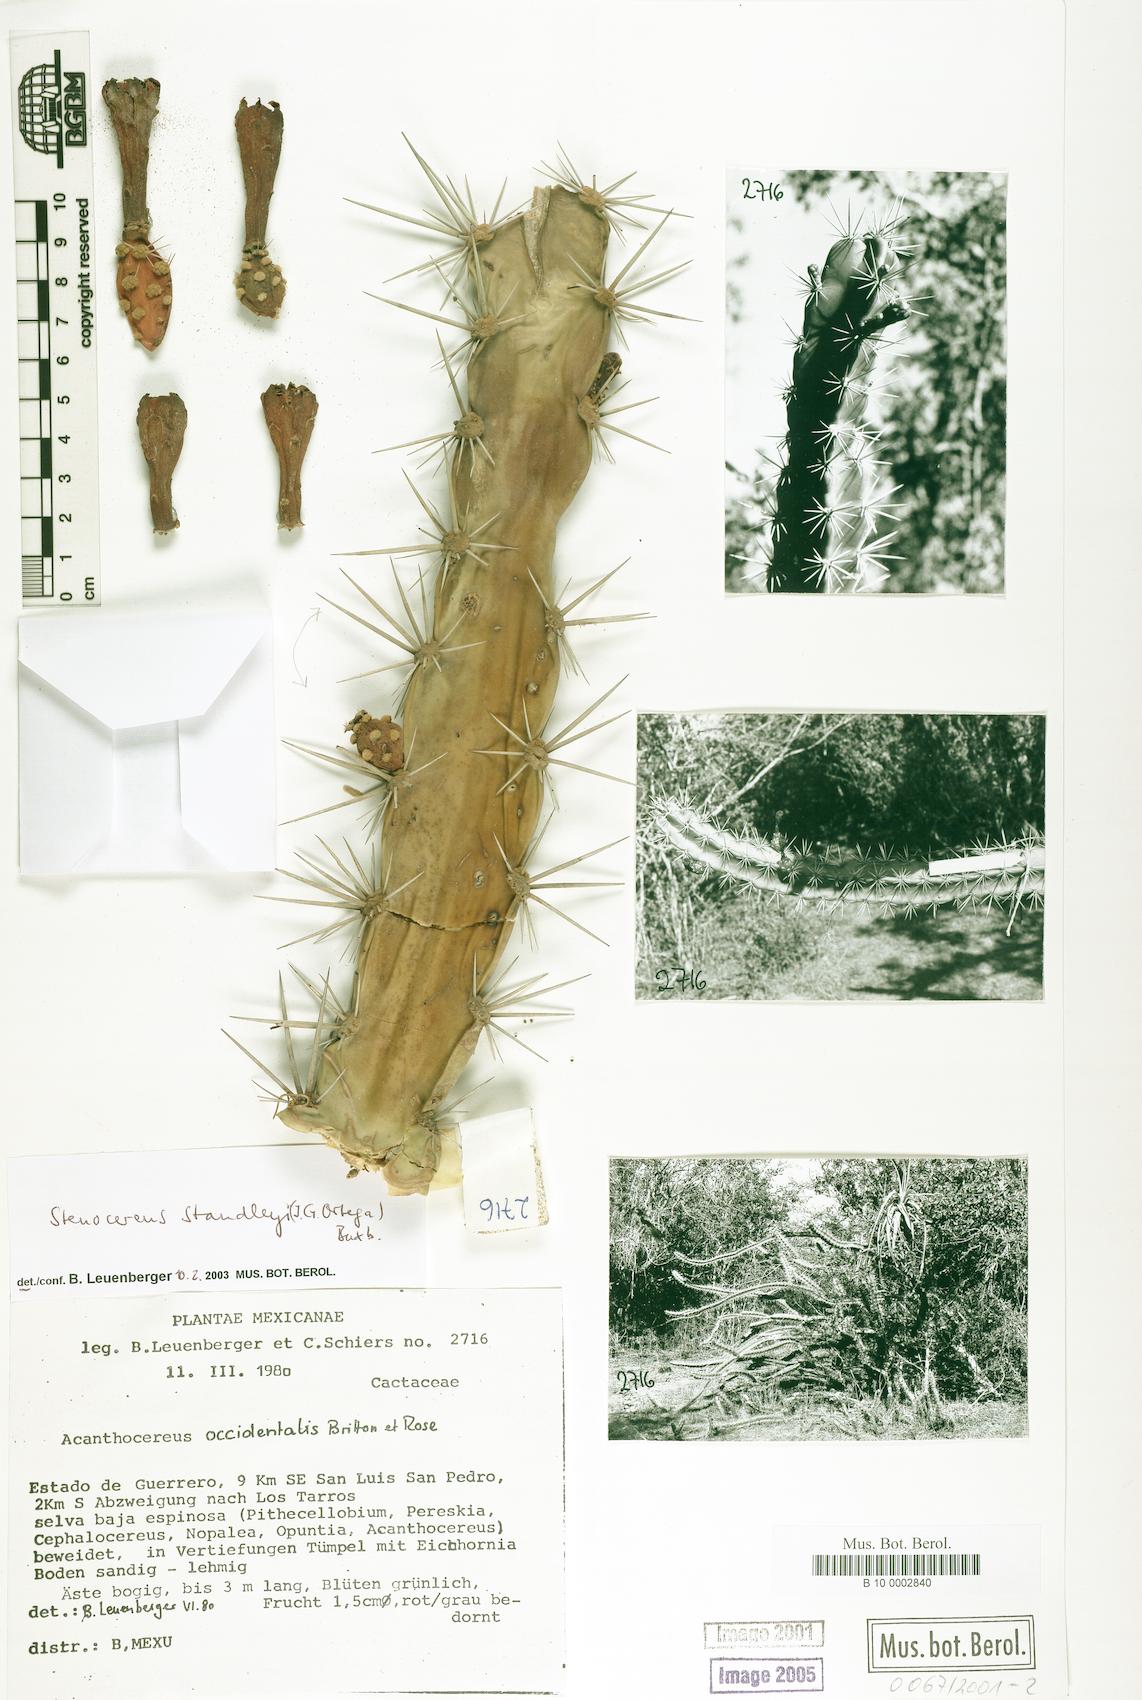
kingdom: Plantae
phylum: Tracheophyta
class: Magnoliopsida
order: Caryophyllales
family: Cactaceae
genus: Stenocereus
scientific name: Stenocereus standleyi
